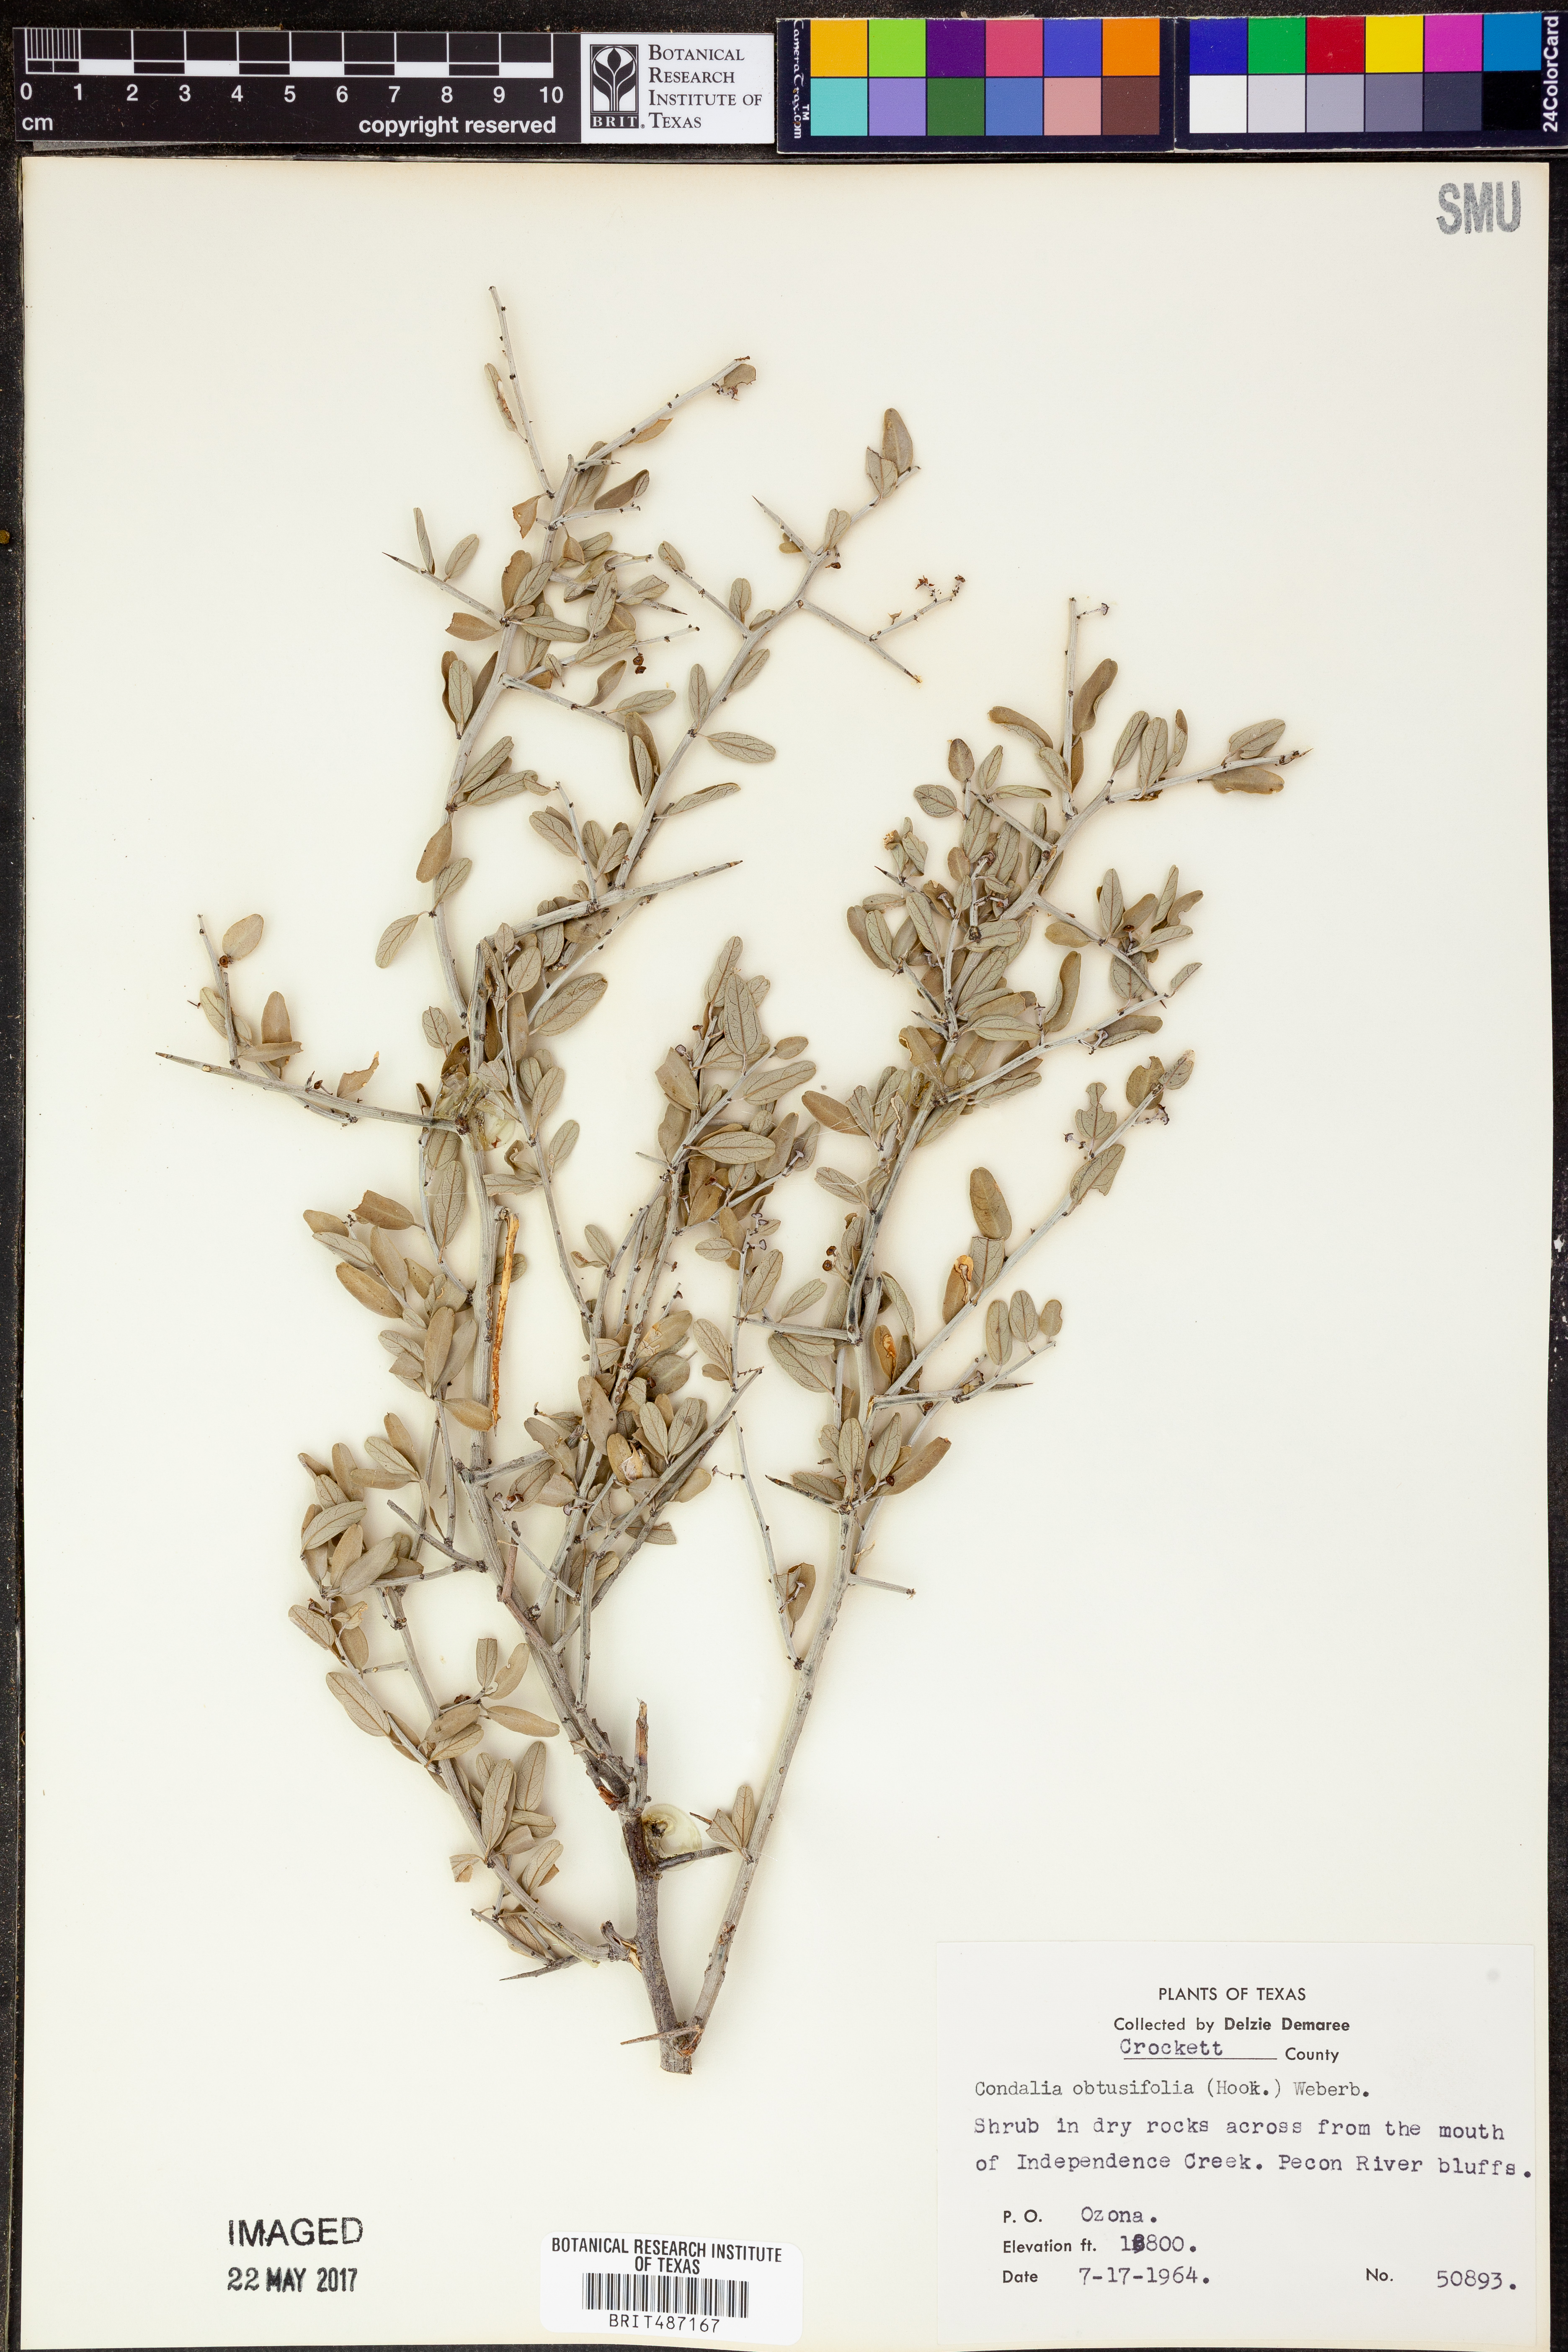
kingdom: Plantae
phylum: Tracheophyta
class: Magnoliopsida
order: Rosales
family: Rhamnaceae
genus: Sarcomphalus
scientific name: Sarcomphalus obtusifolius
